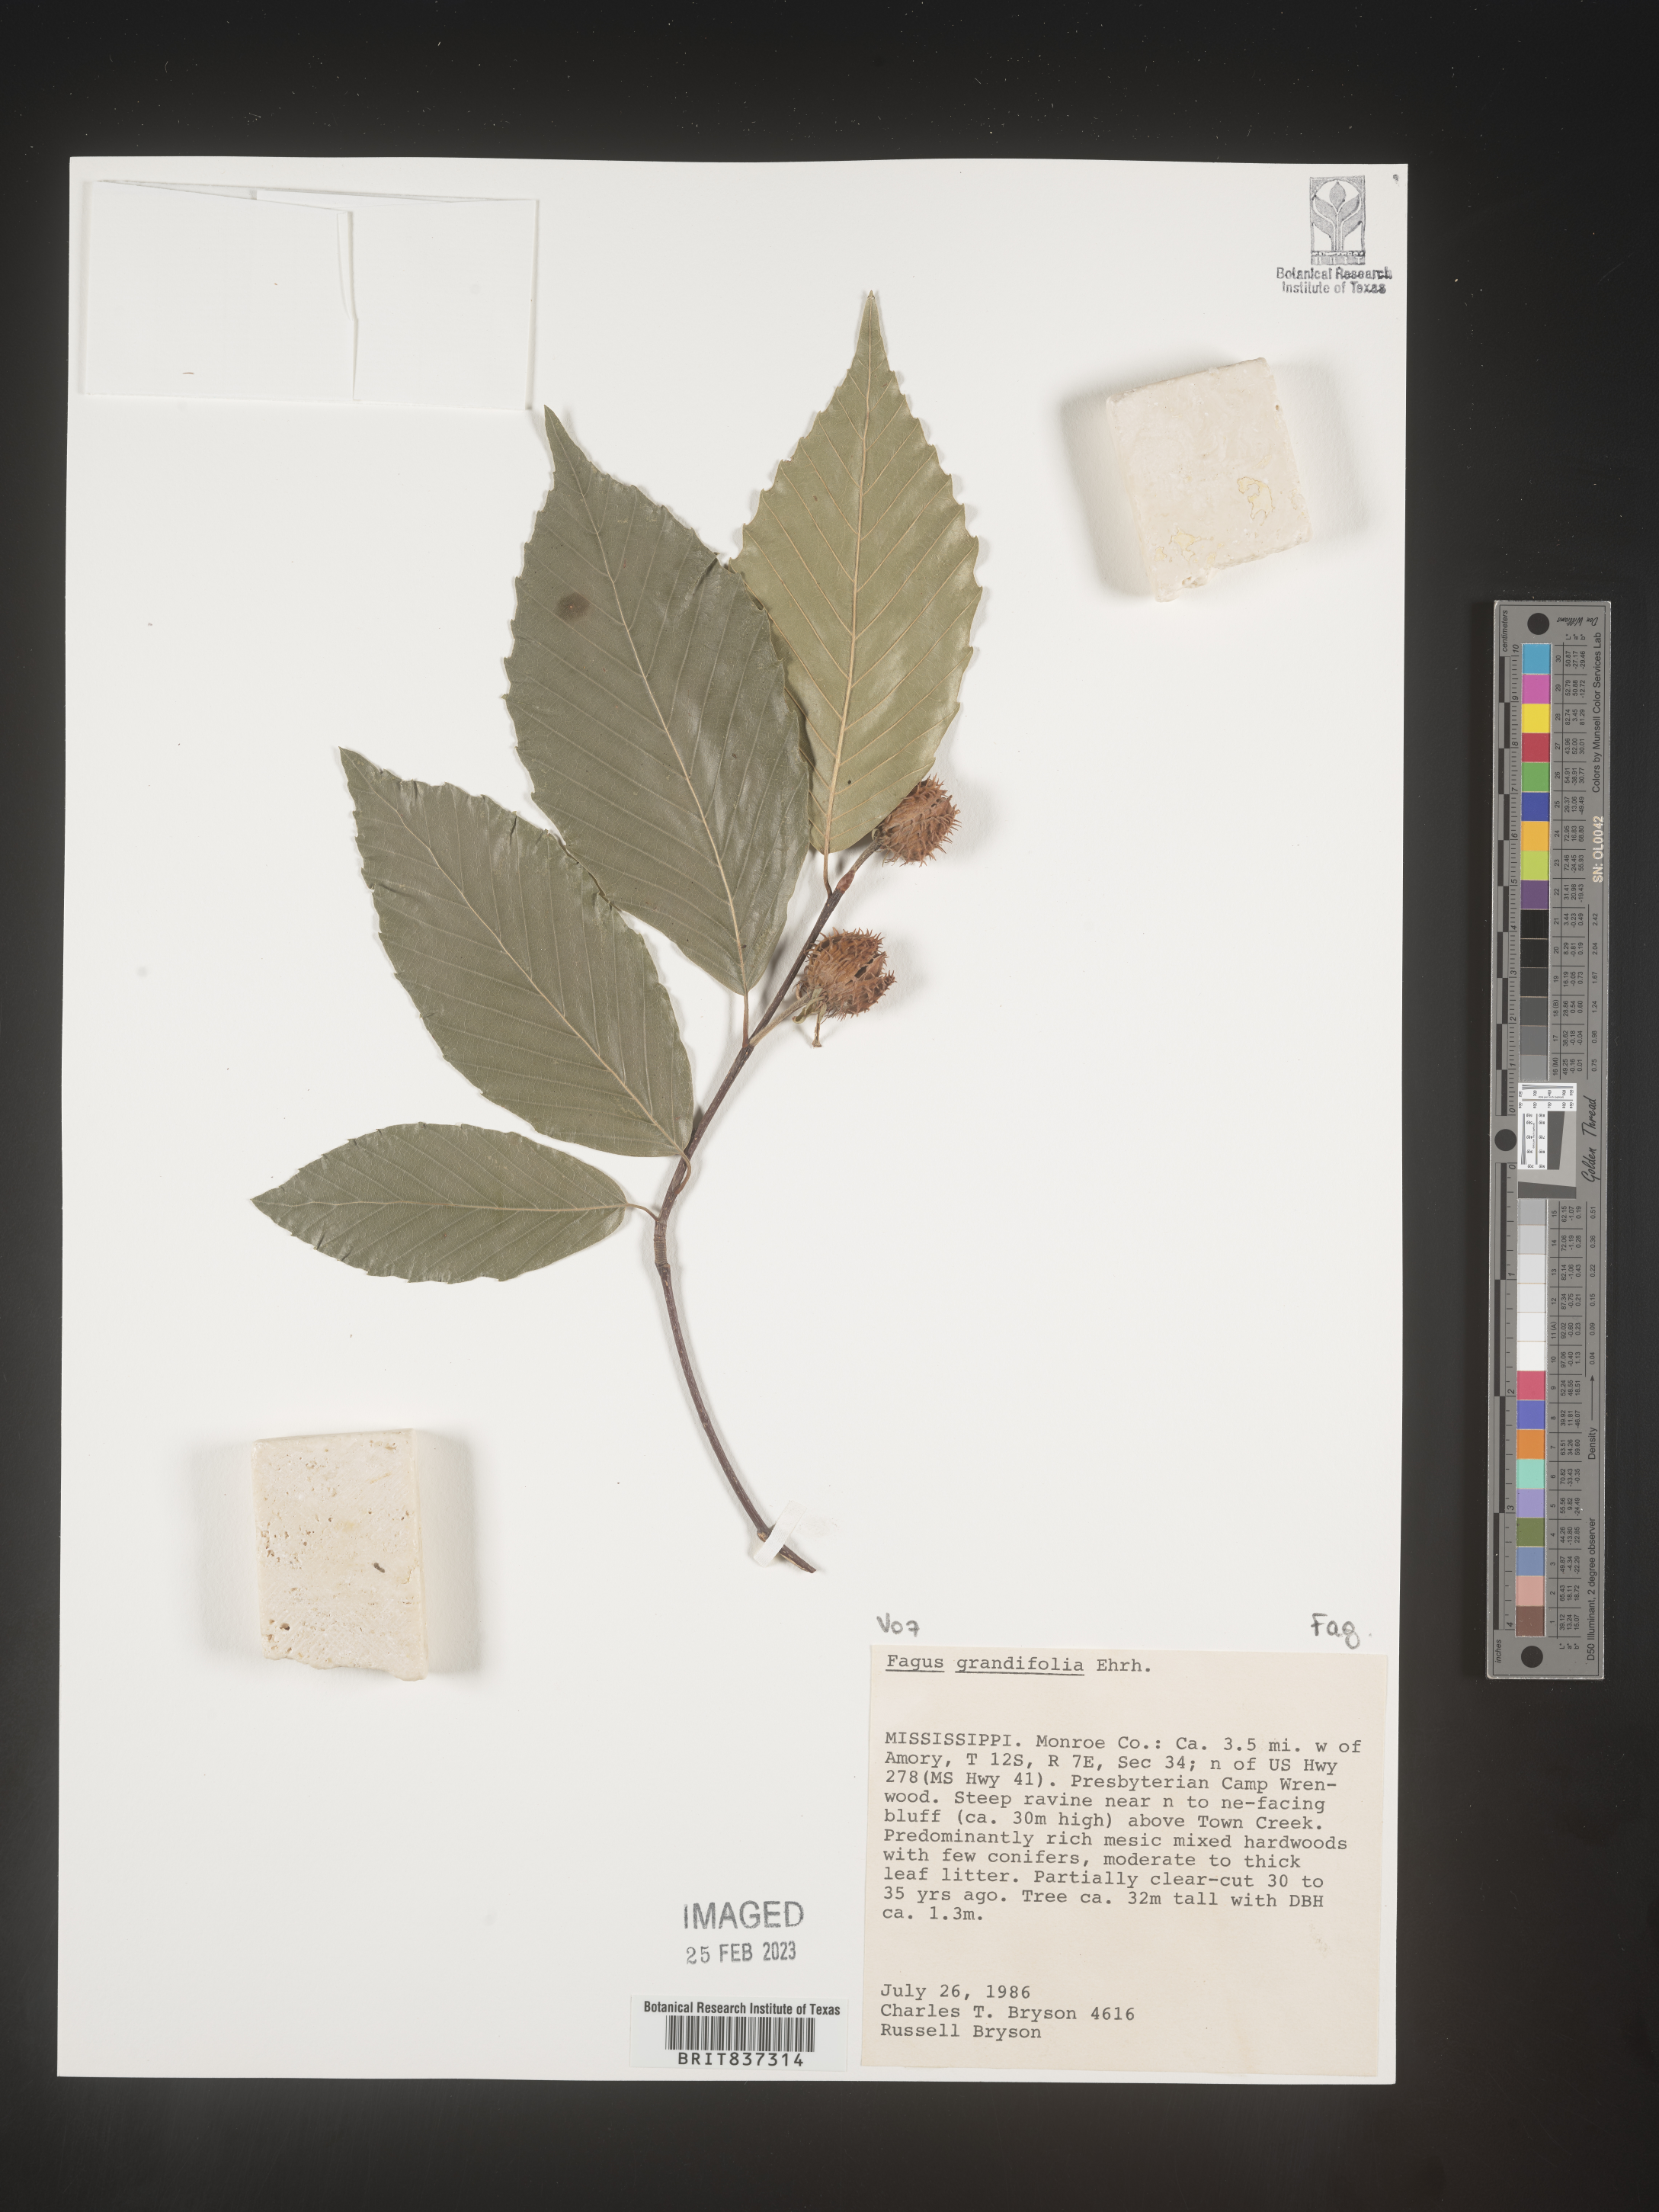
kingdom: Plantae
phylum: Tracheophyta
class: Magnoliopsida
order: Fagales
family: Fagaceae
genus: Fagus
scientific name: Fagus grandifolia
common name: American beech
